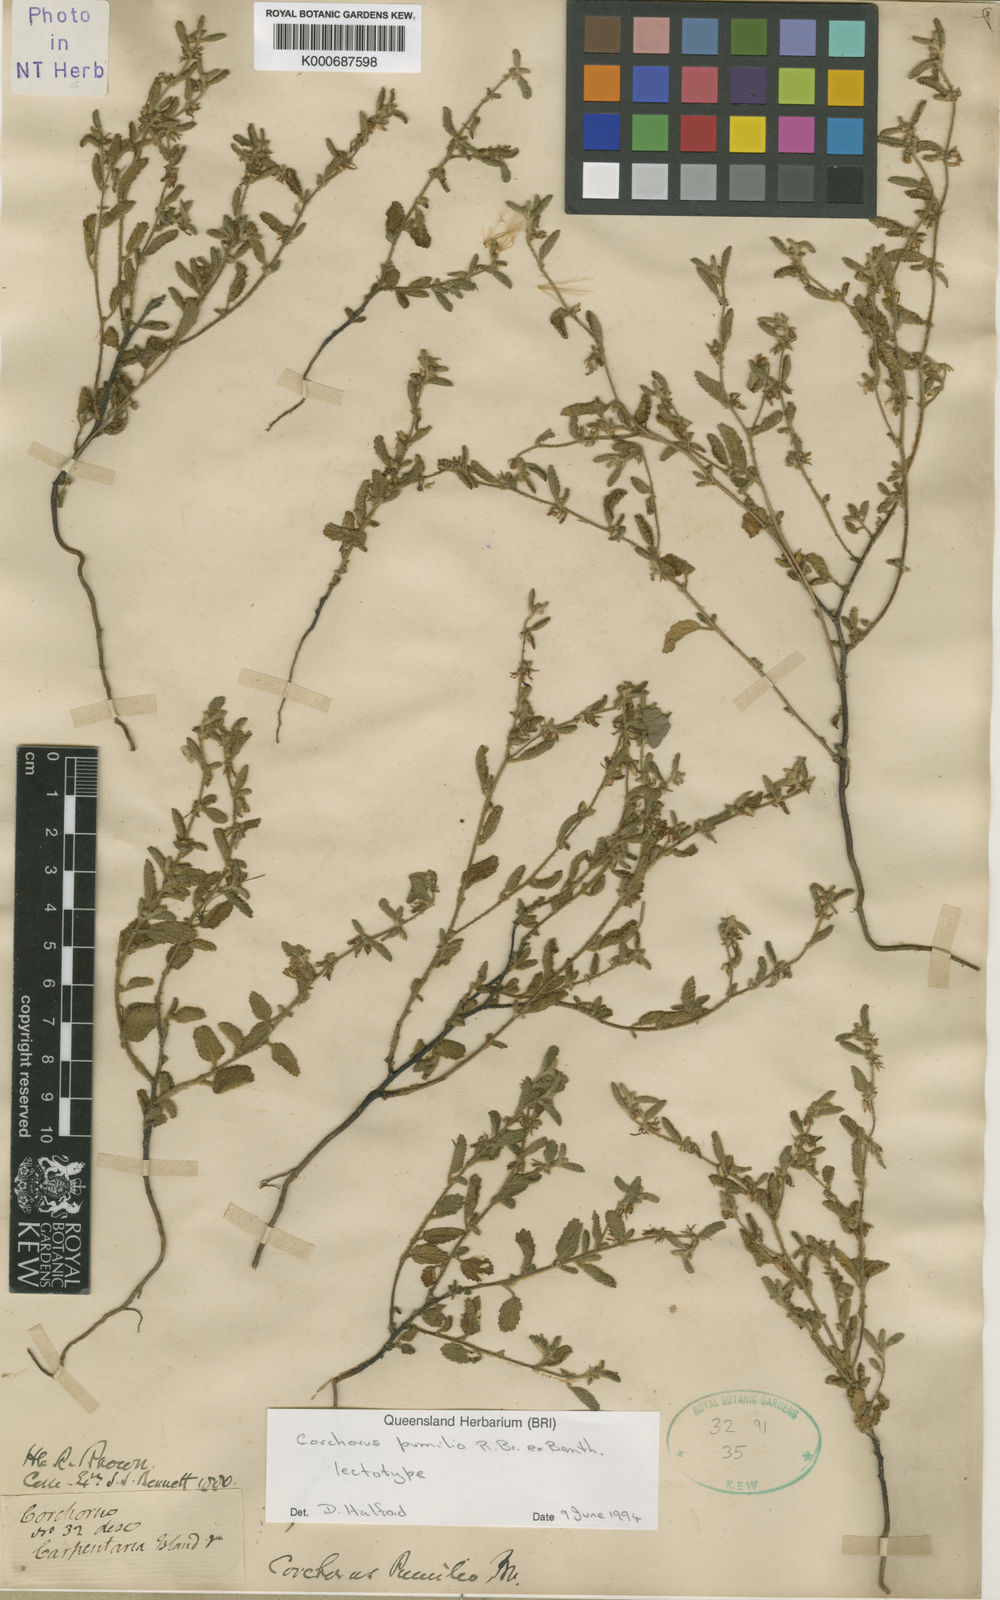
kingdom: Plantae
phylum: Tracheophyta
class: Magnoliopsida
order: Malvales
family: Malvaceae
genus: Corchorus
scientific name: Corchorus pumilio
